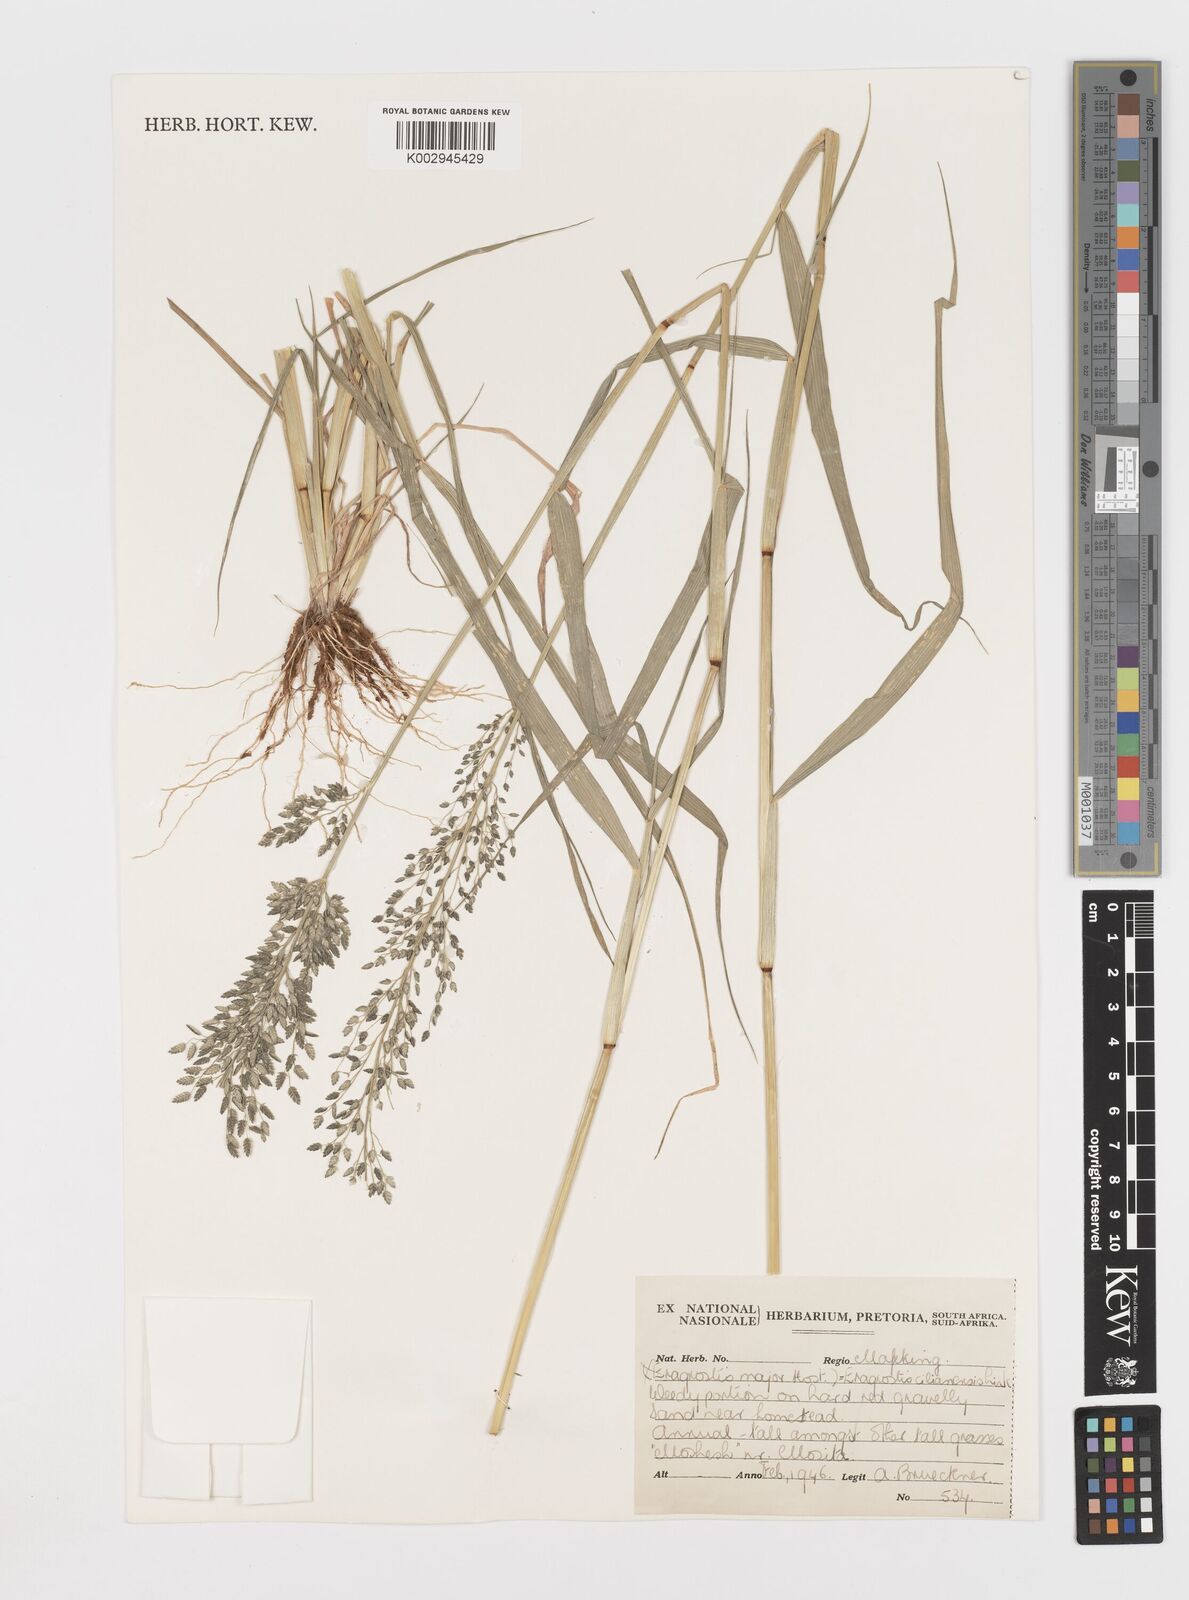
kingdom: Plantae
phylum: Tracheophyta
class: Liliopsida
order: Poales
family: Poaceae
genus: Eragrostis
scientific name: Eragrostis cilianensis
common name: Stinkgrass
